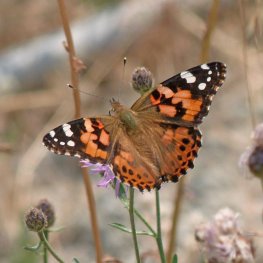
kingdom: Animalia
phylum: Arthropoda
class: Insecta
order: Lepidoptera
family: Nymphalidae
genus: Vanessa
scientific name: Vanessa cardui
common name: Painted Lady
